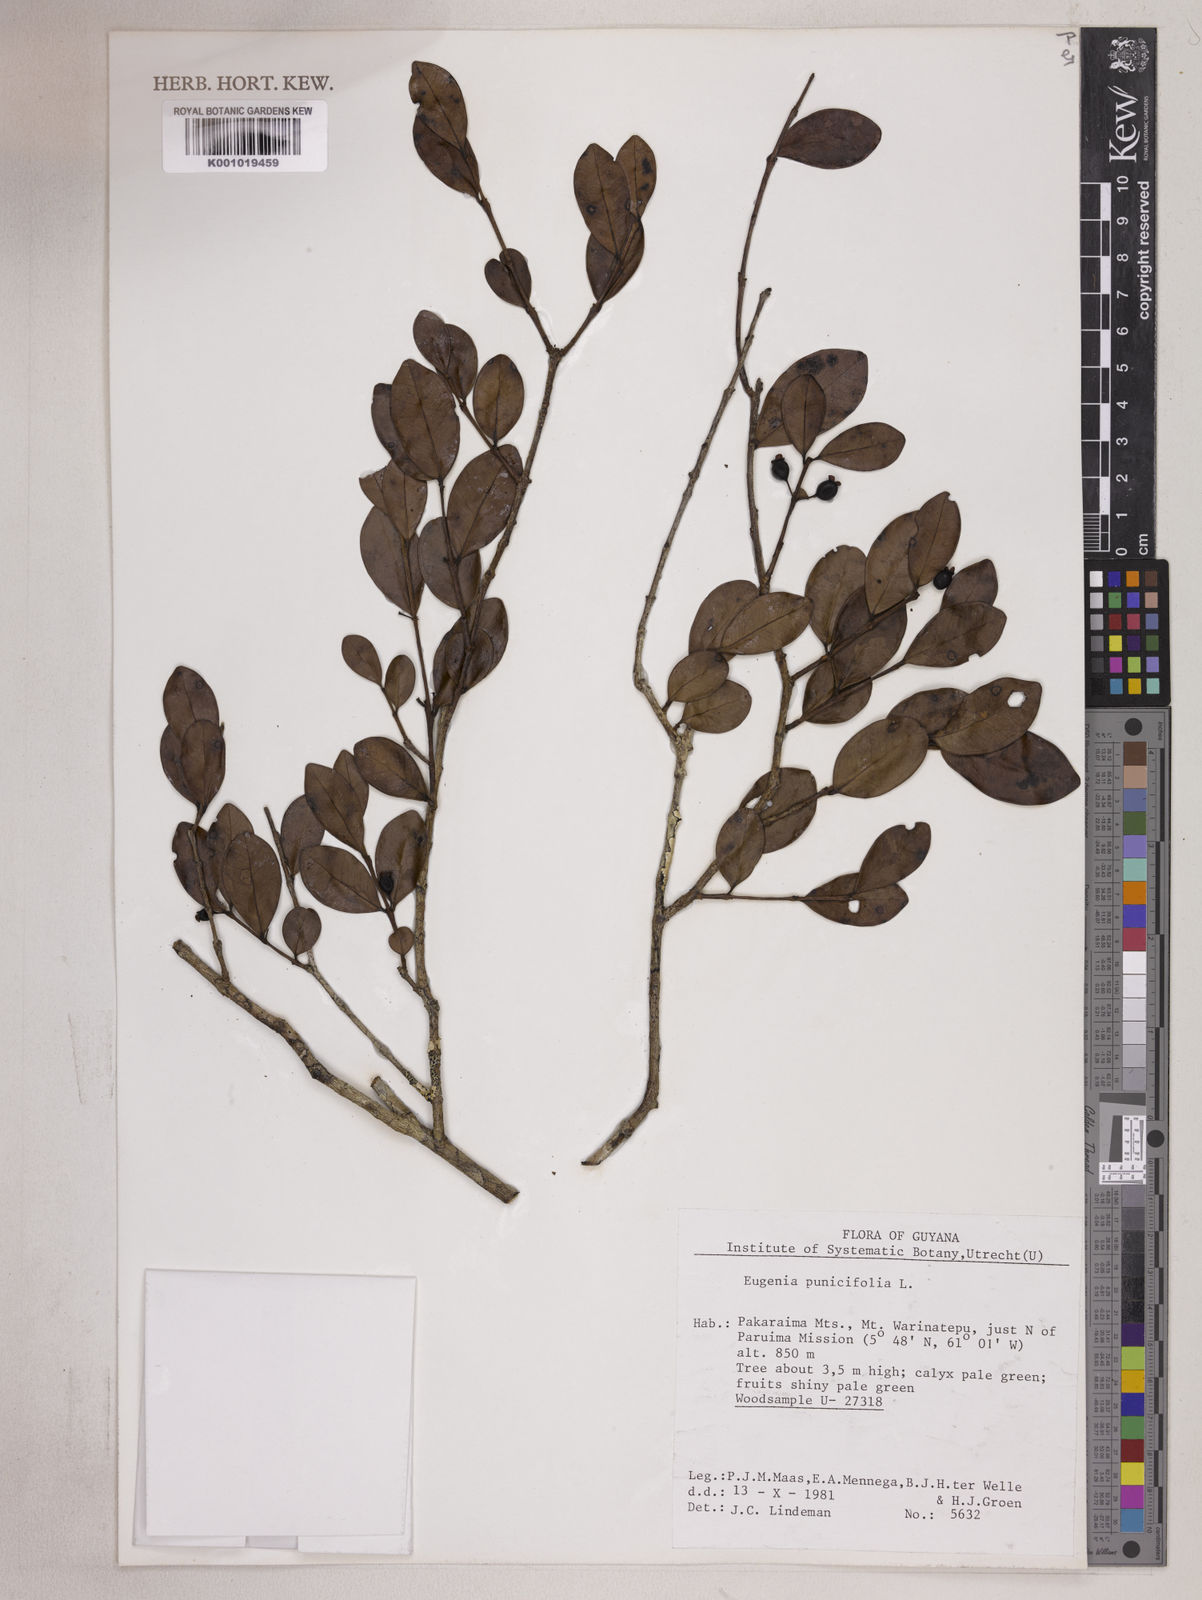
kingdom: Plantae
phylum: Tracheophyta
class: Magnoliopsida
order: Myrtales
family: Myrtaceae
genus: Eugenia
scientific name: Eugenia punicifolia
